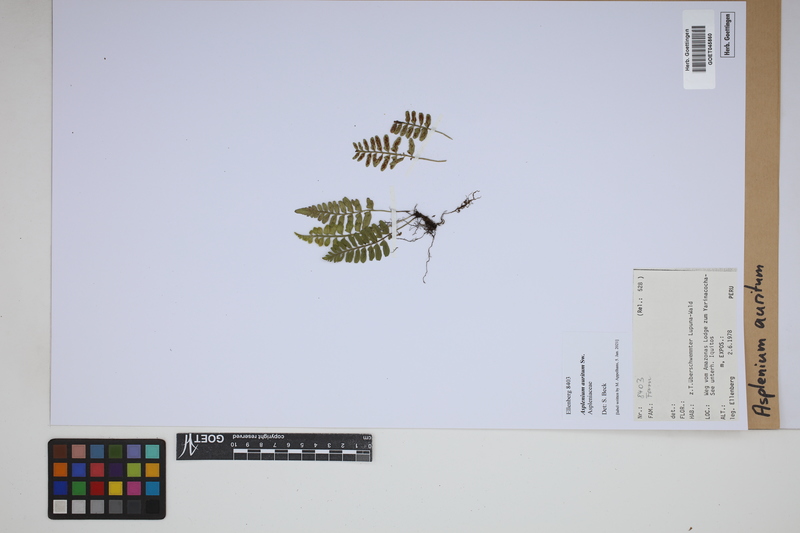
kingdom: Plantae
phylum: Tracheophyta
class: Polypodiopsida
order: Polypodiales
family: Aspleniaceae
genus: Asplenium
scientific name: Asplenium auritum
